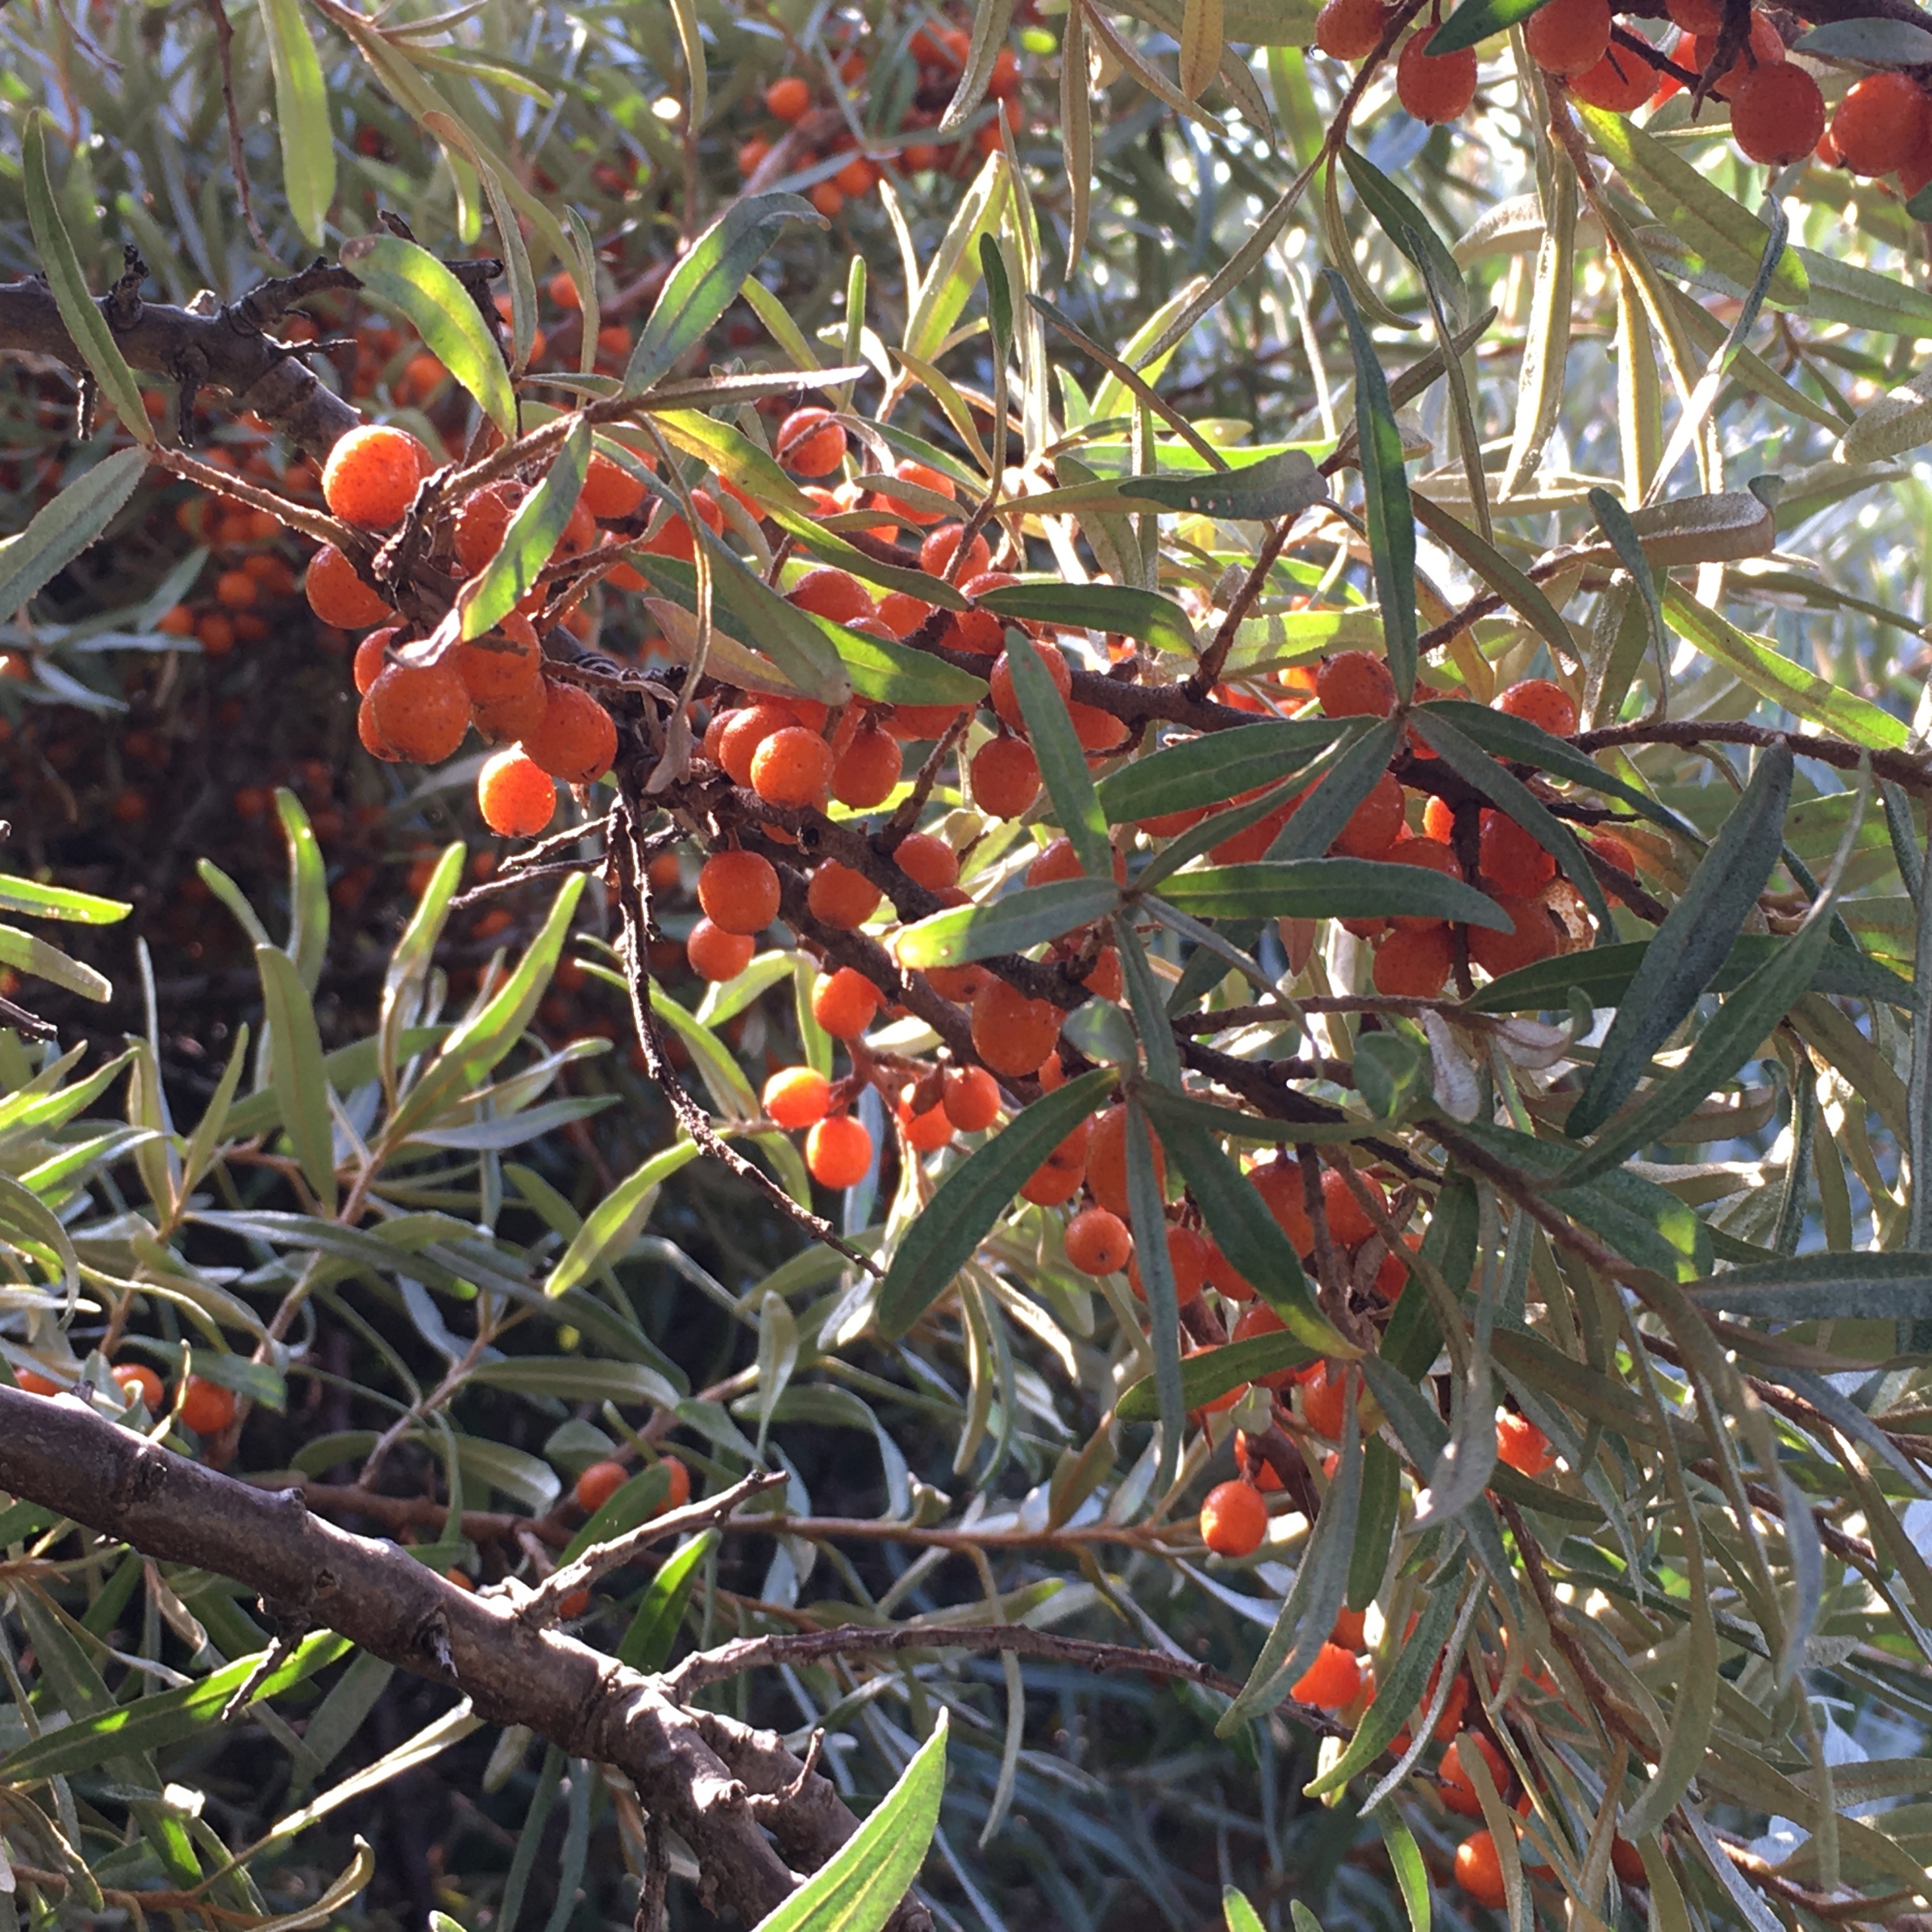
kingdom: Plantae
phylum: Tracheophyta
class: Magnoliopsida
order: Rosales
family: Elaeagnaceae
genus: Hippophae
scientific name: Hippophae rhamnoides
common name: Havtorn
